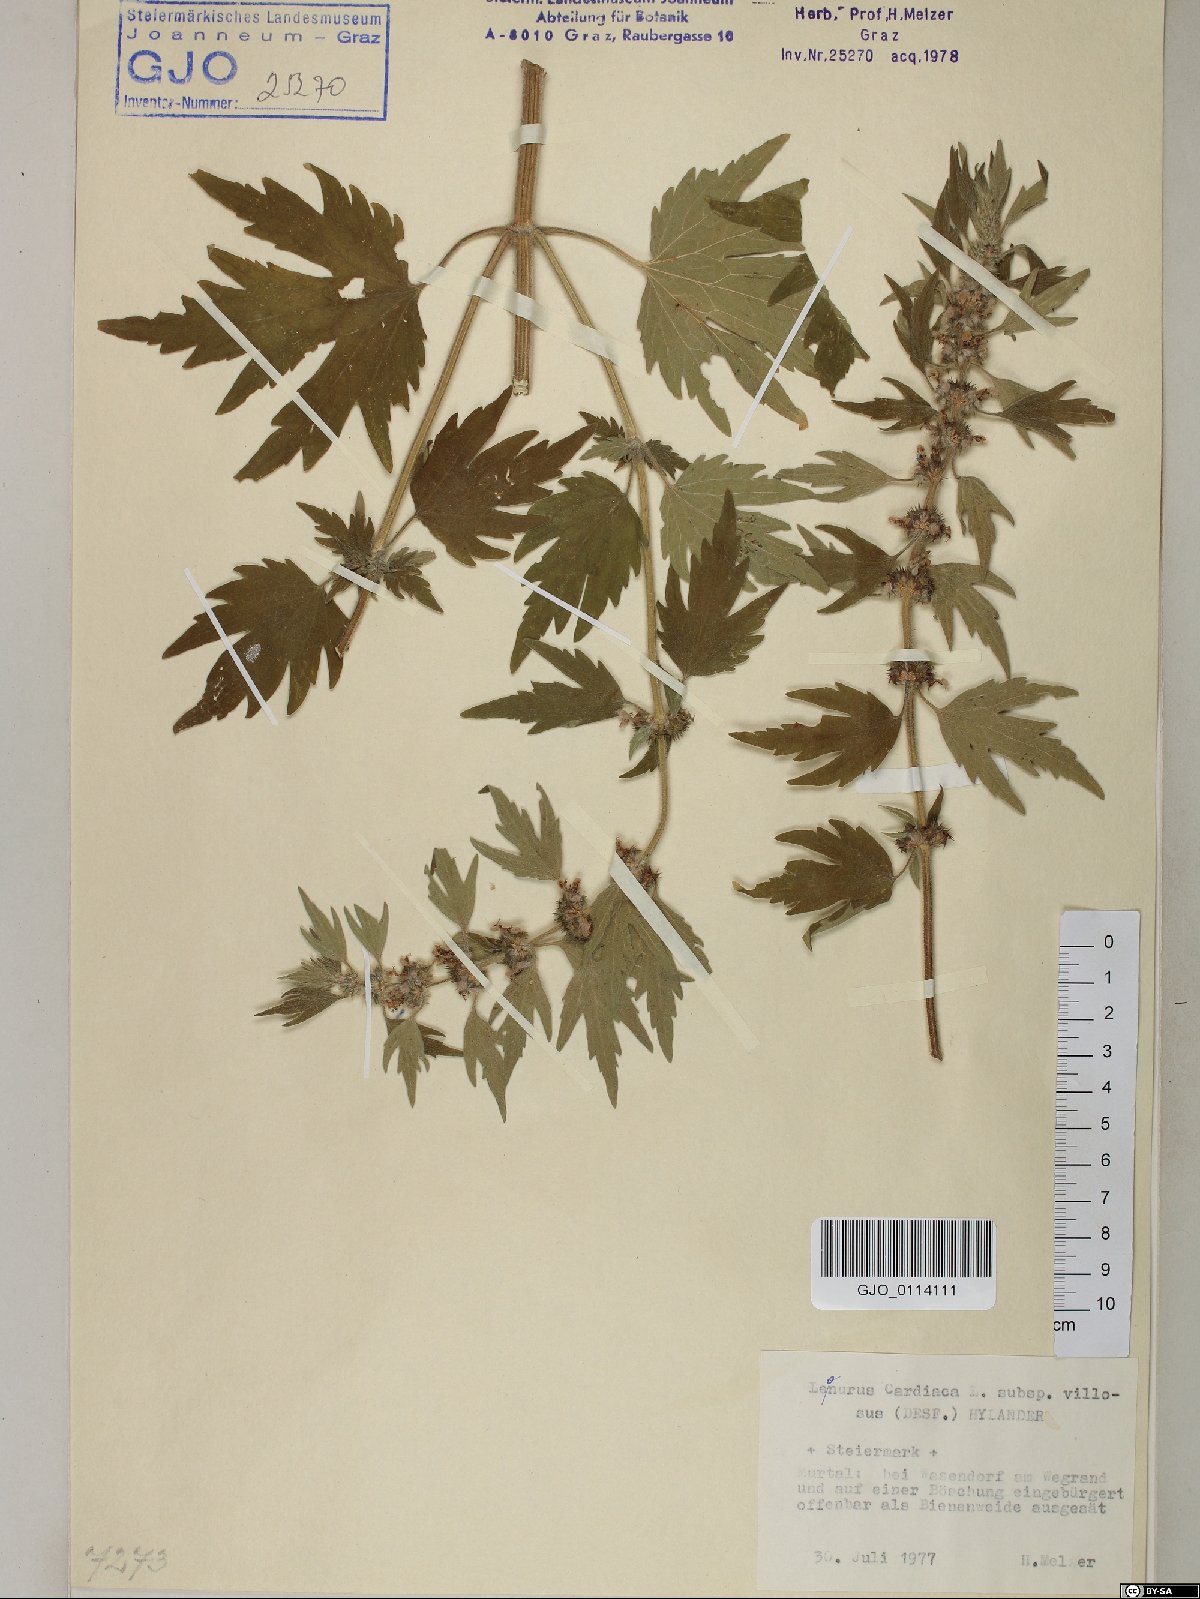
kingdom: Plantae
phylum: Tracheophyta
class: Magnoliopsida
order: Lamiales
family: Lamiaceae
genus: Leonurus
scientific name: Leonurus quinquelobatus
